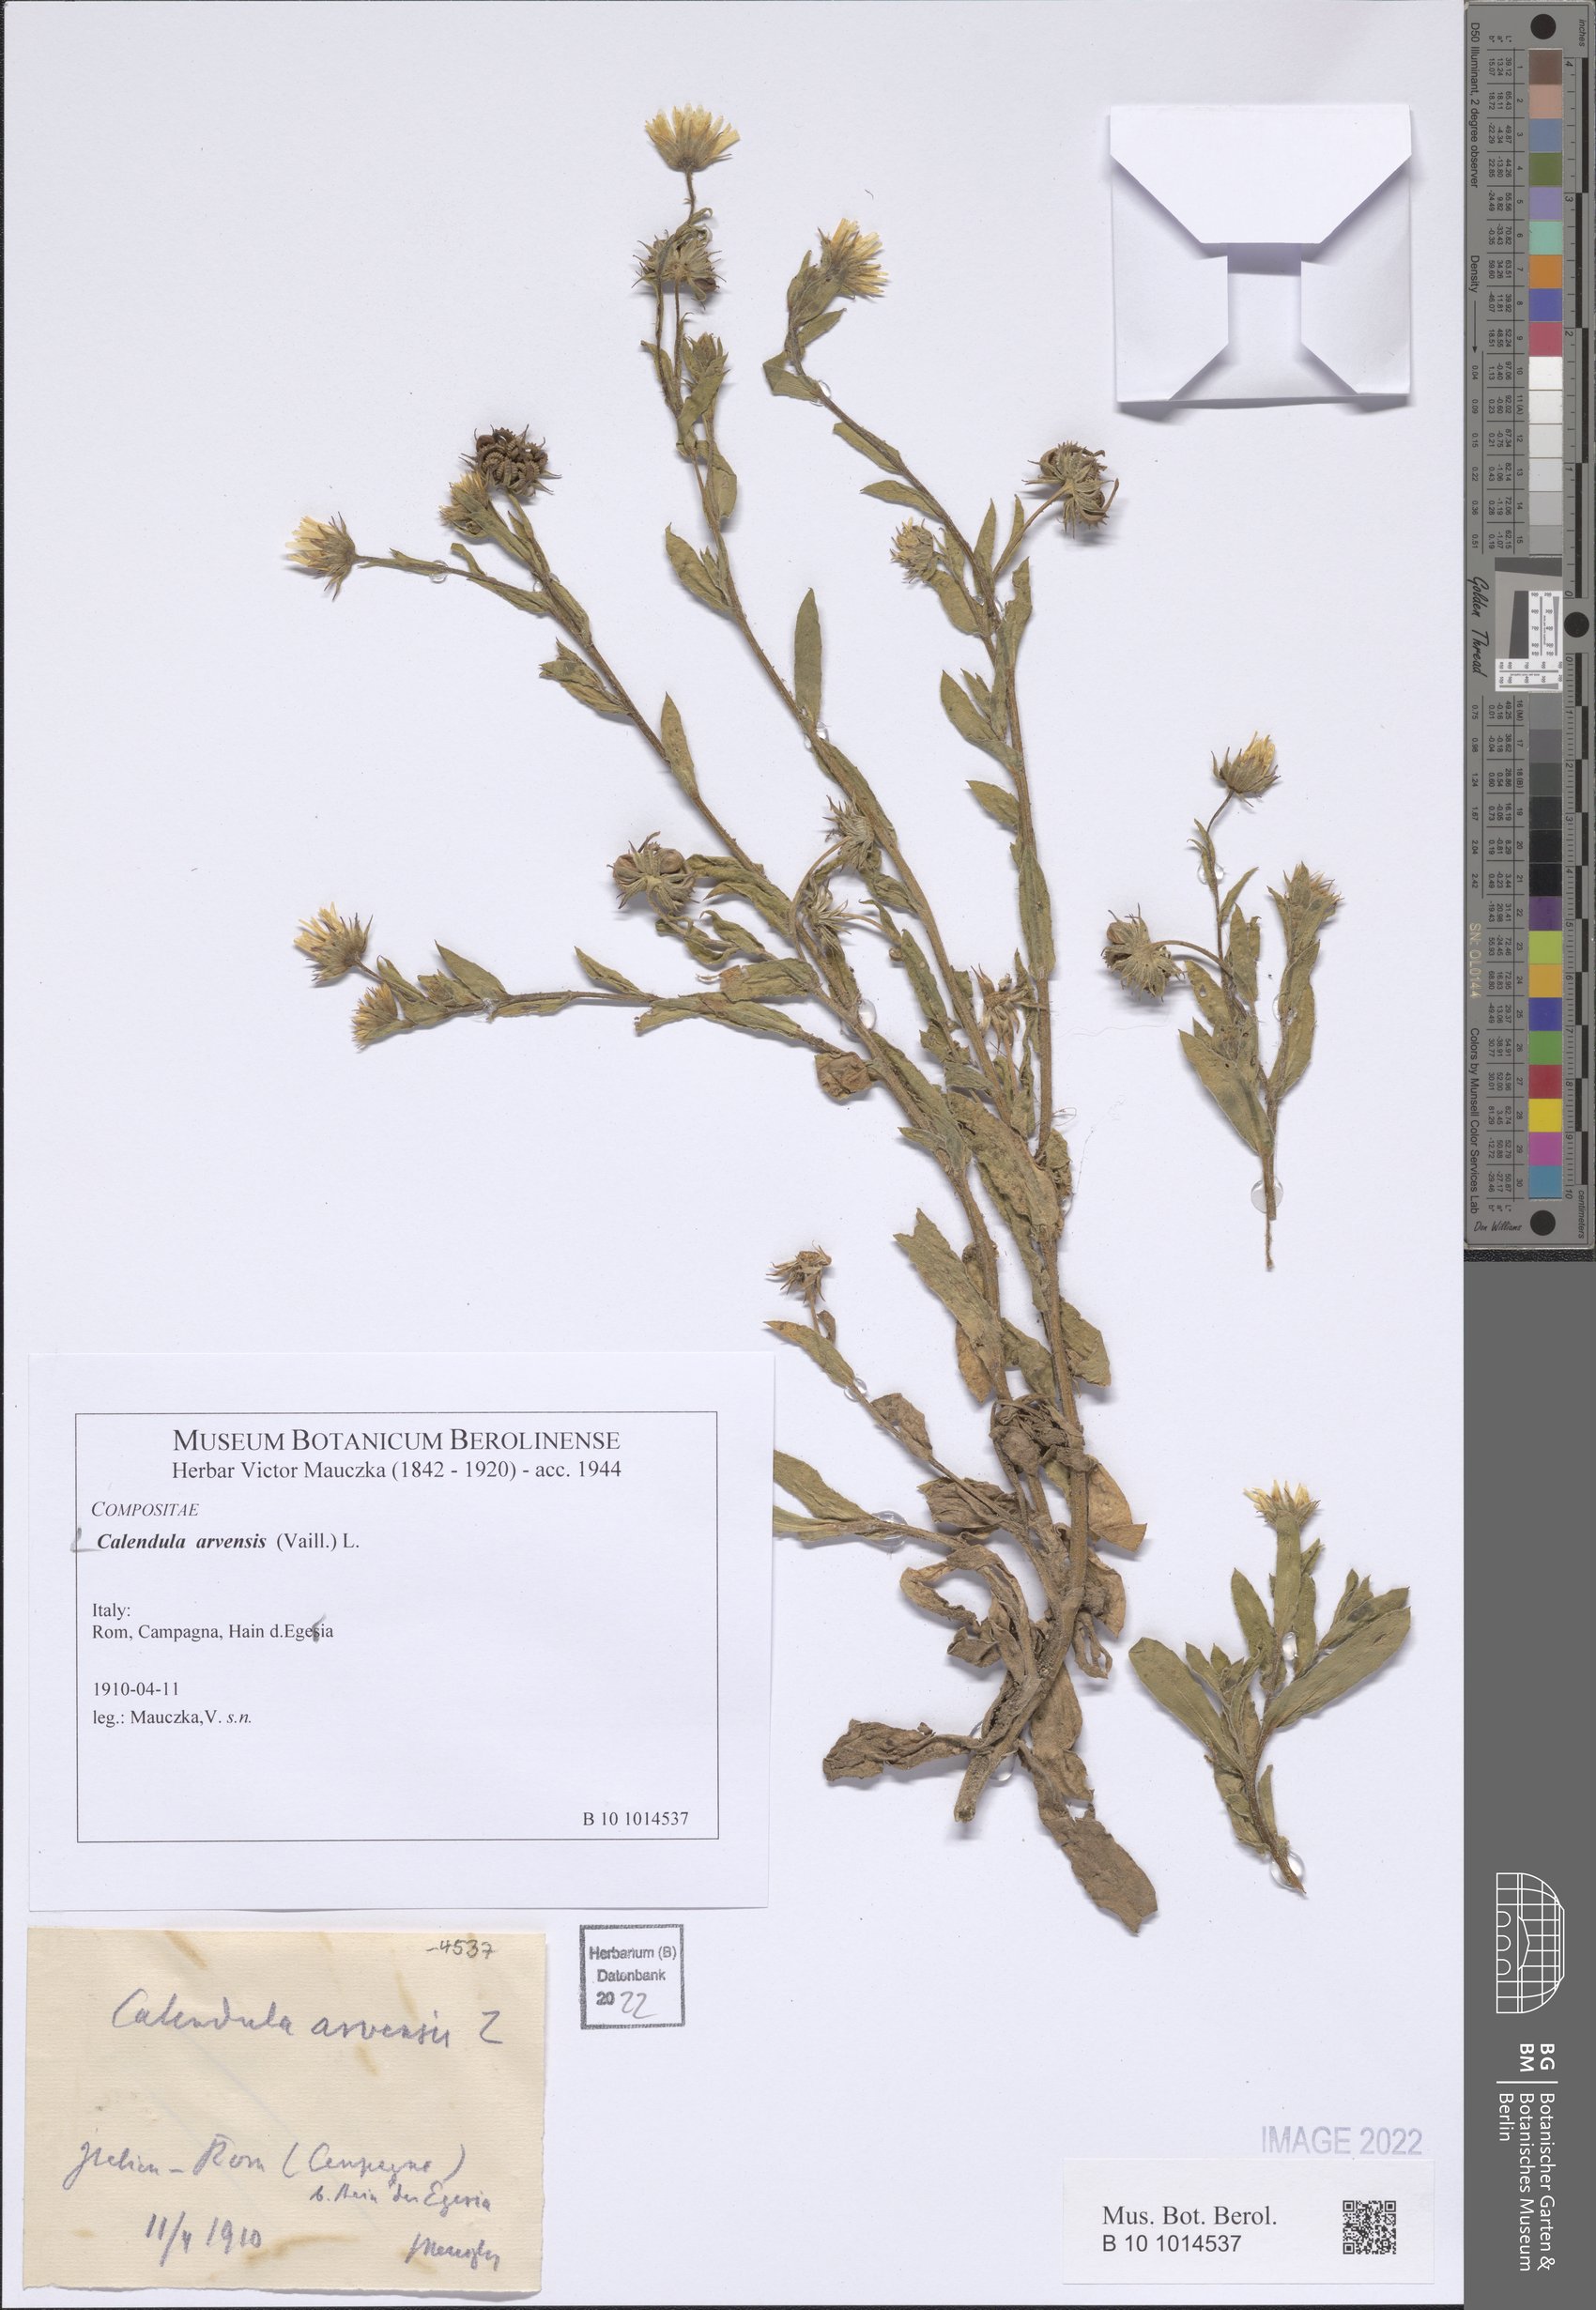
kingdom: Plantae
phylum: Tracheophyta
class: Magnoliopsida
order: Asterales
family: Asteraceae
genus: Calendula
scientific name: Calendula arvensis
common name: Field marigold
